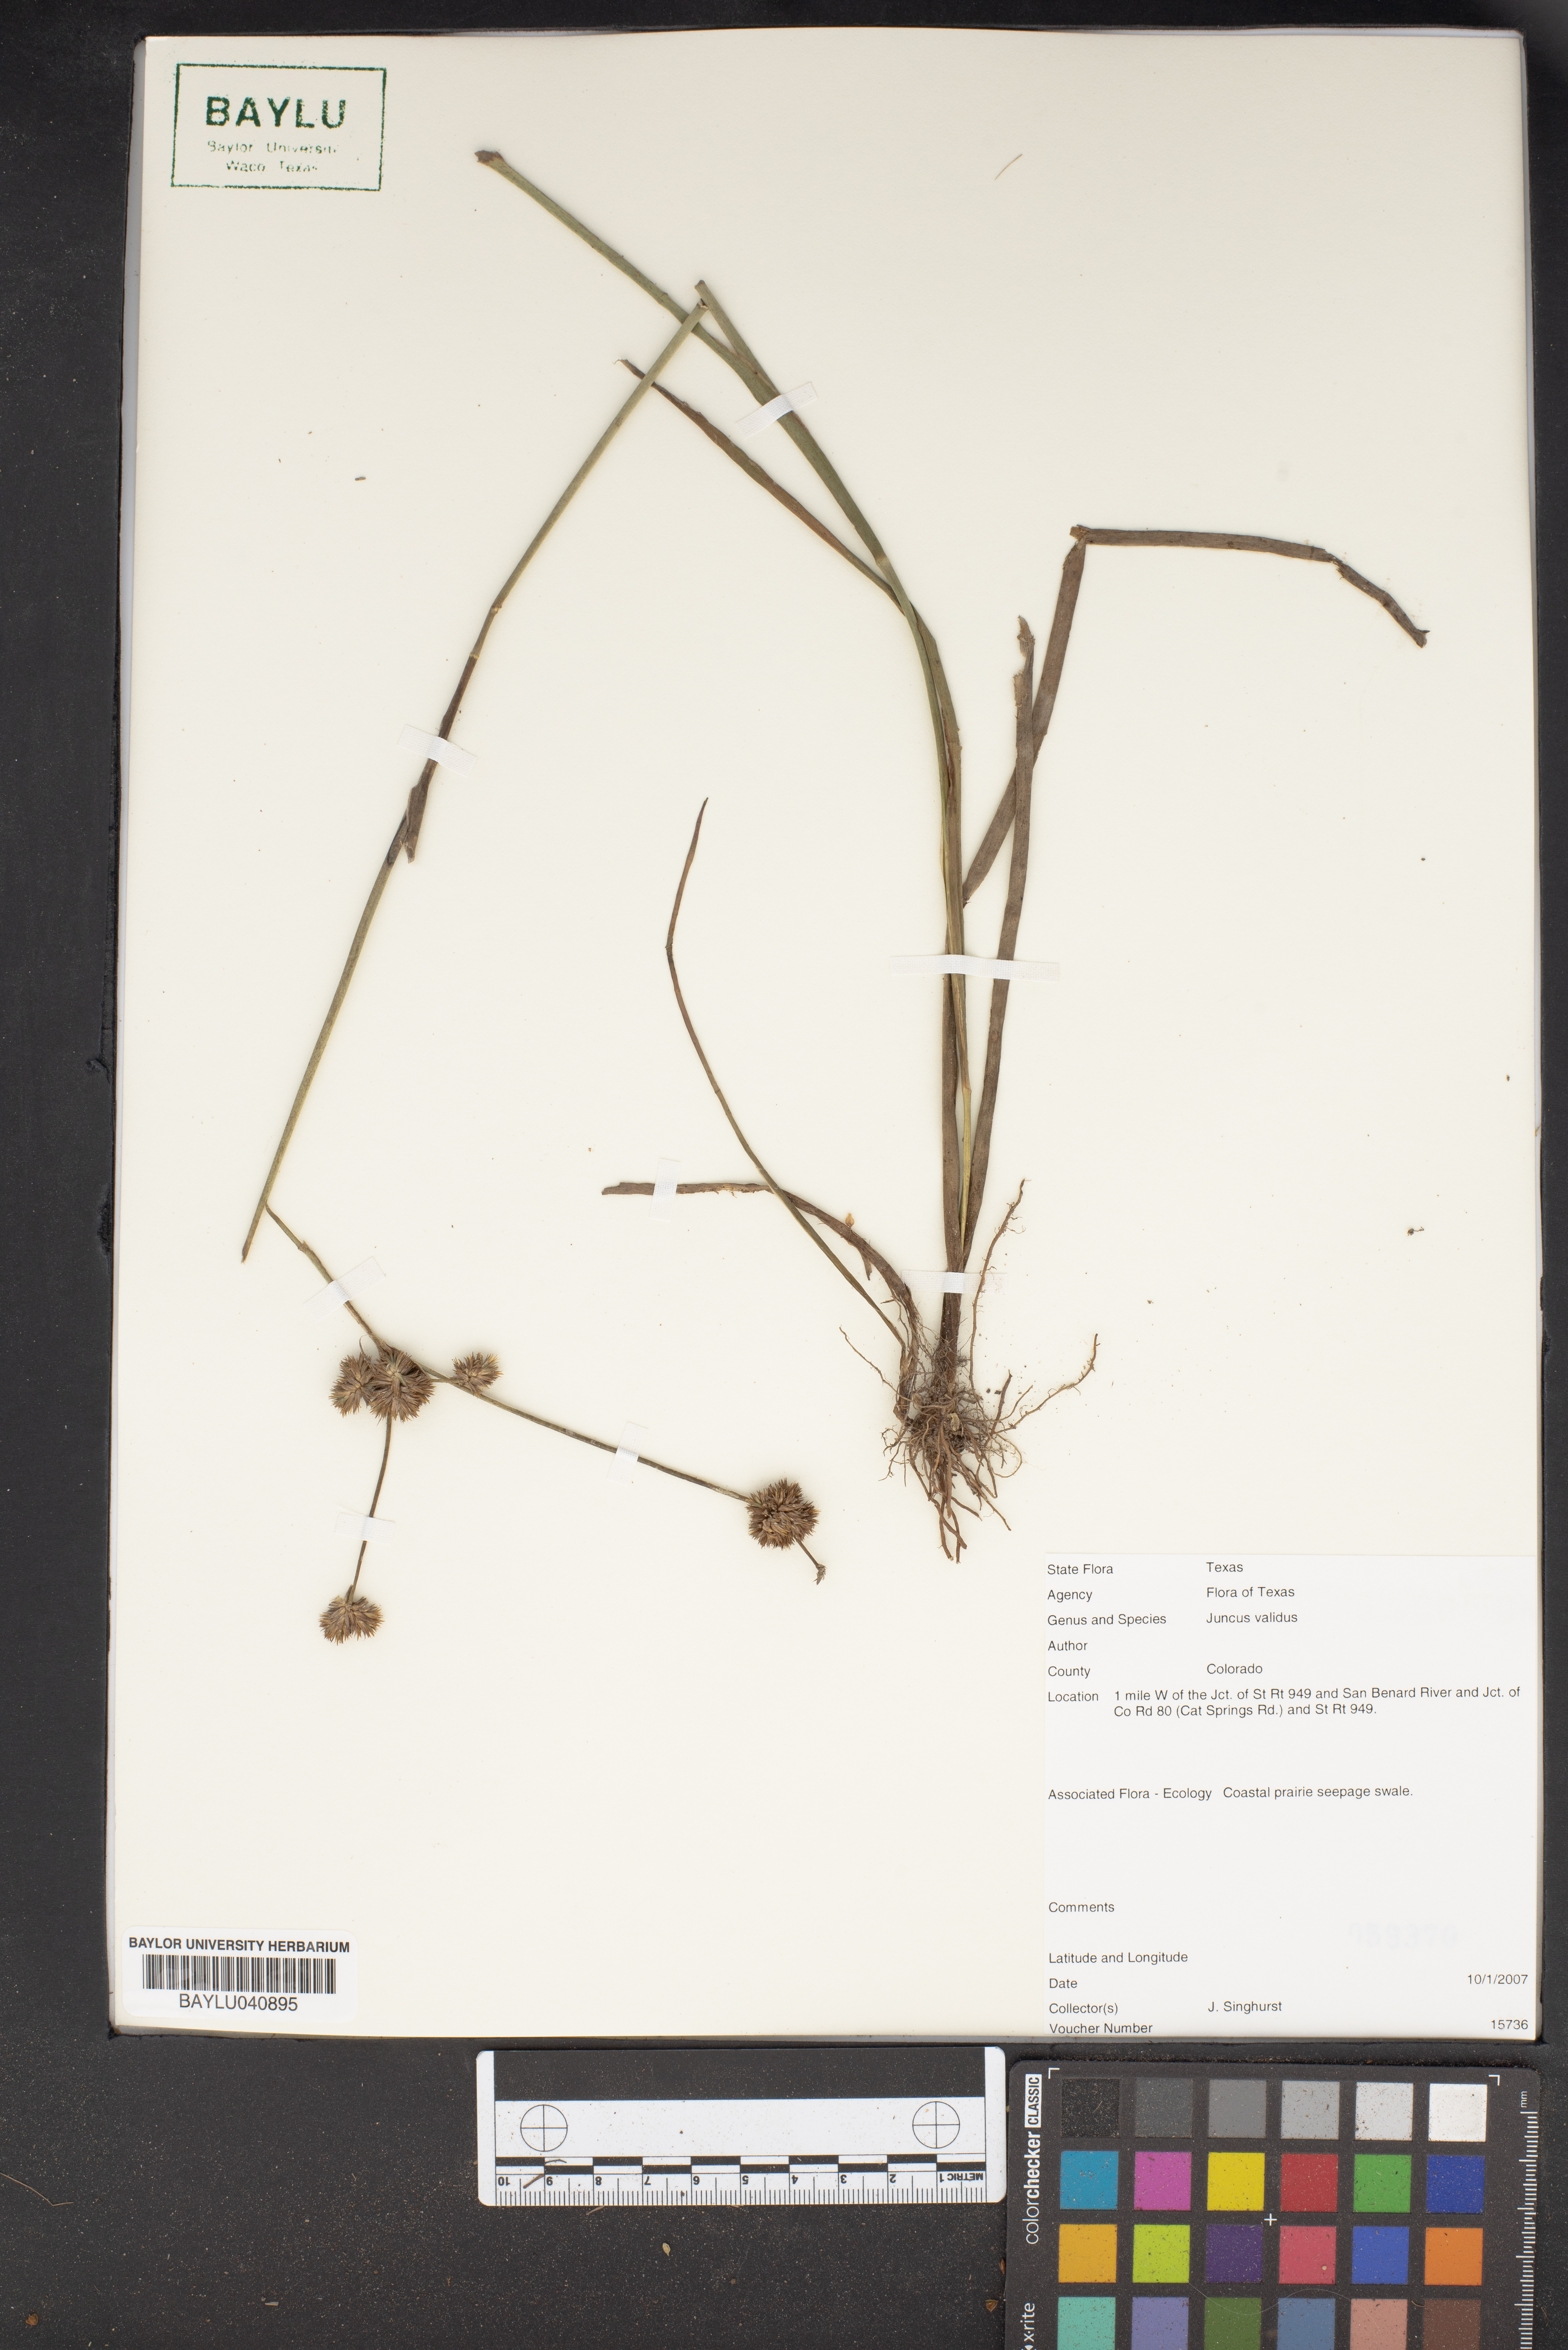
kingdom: Plantae
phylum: Tracheophyta
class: Liliopsida
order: Poales
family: Juncaceae
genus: Juncus
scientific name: Juncus validus
